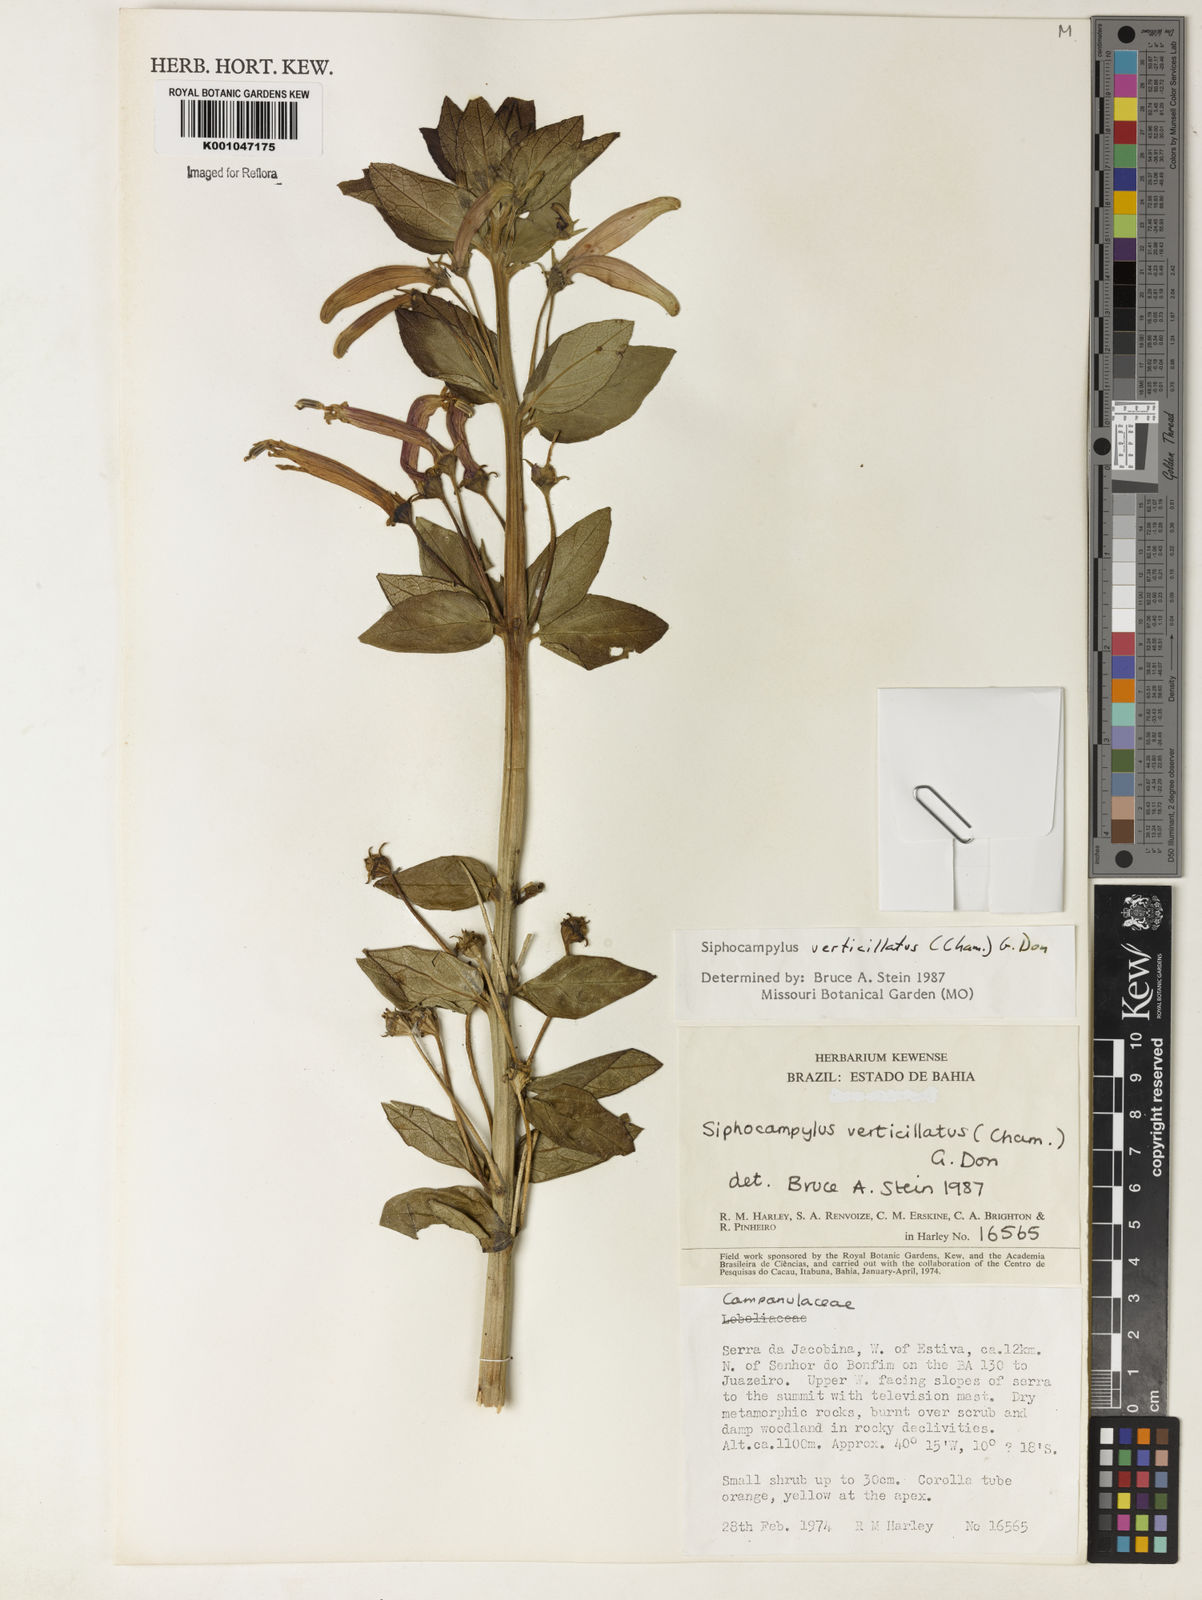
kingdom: Plantae
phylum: Tracheophyta
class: Magnoliopsida
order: Asterales
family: Campanulaceae
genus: Siphocampylus
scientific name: Siphocampylus verticillatus
